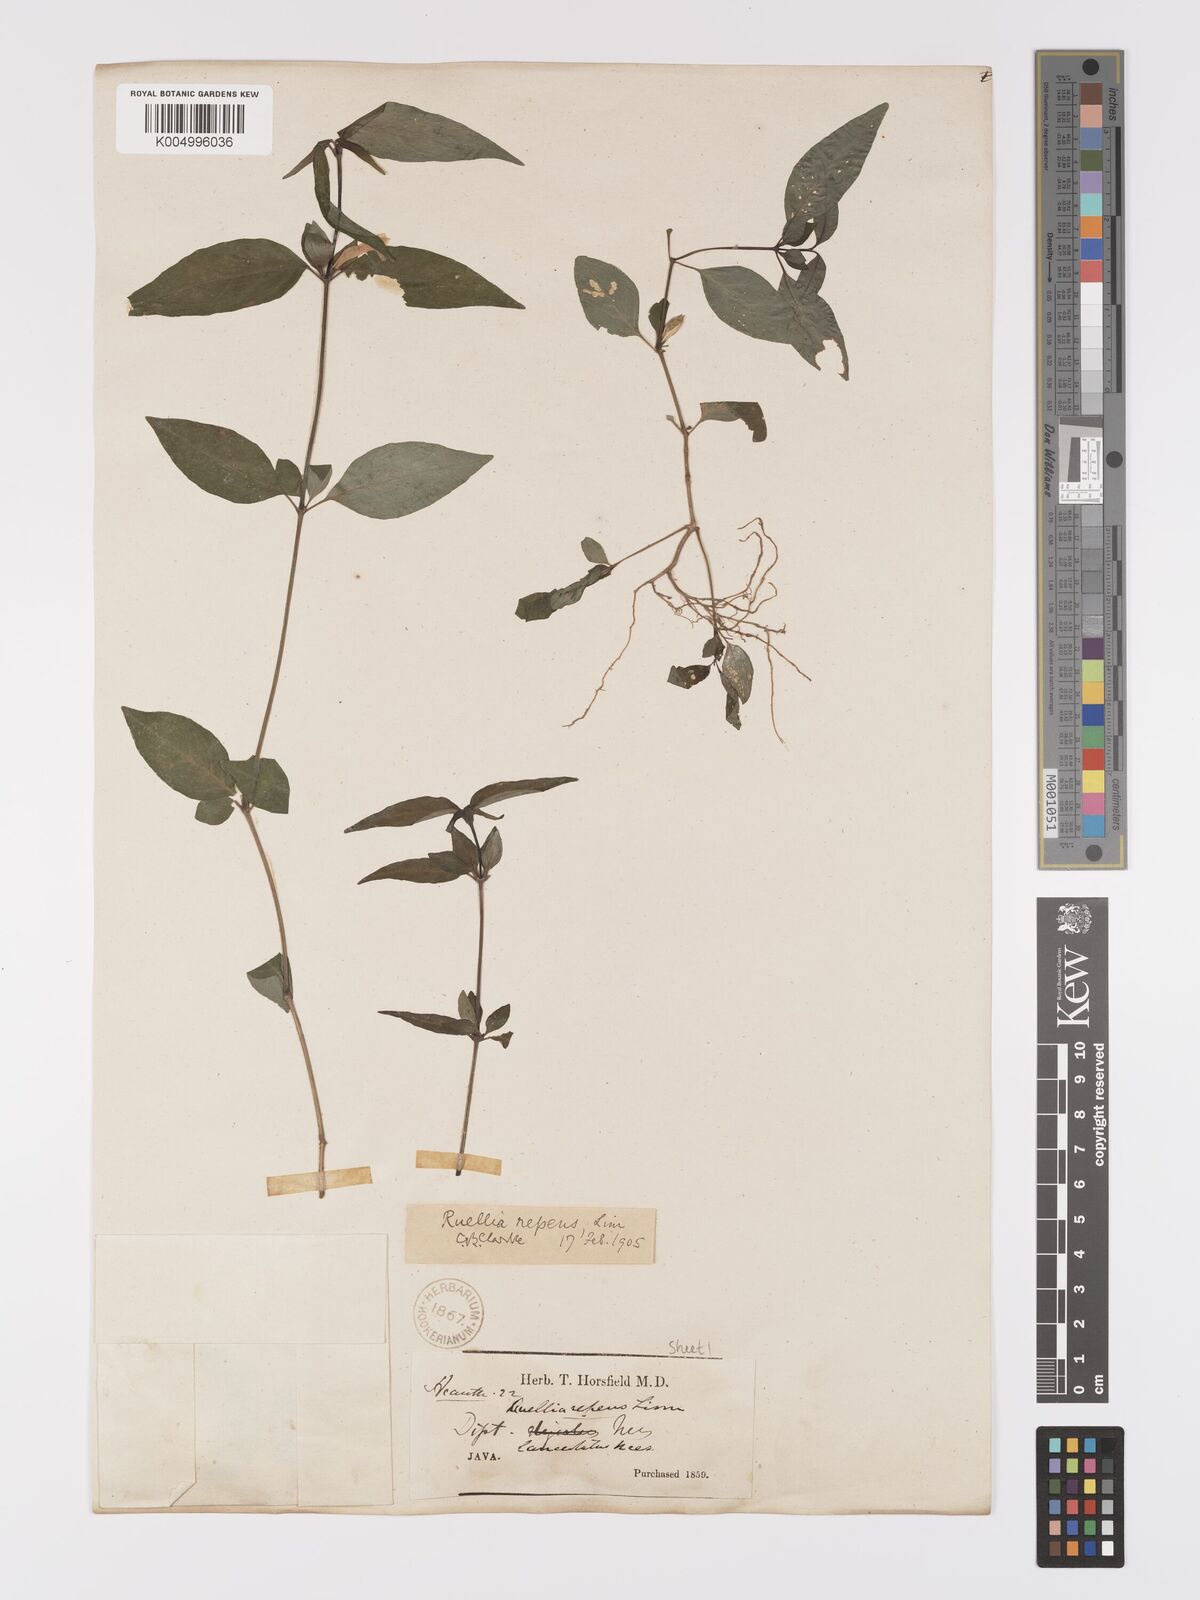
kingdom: Plantae
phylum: Tracheophyta
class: Magnoliopsida
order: Lamiales
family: Acanthaceae
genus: Ruellia
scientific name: Ruellia
